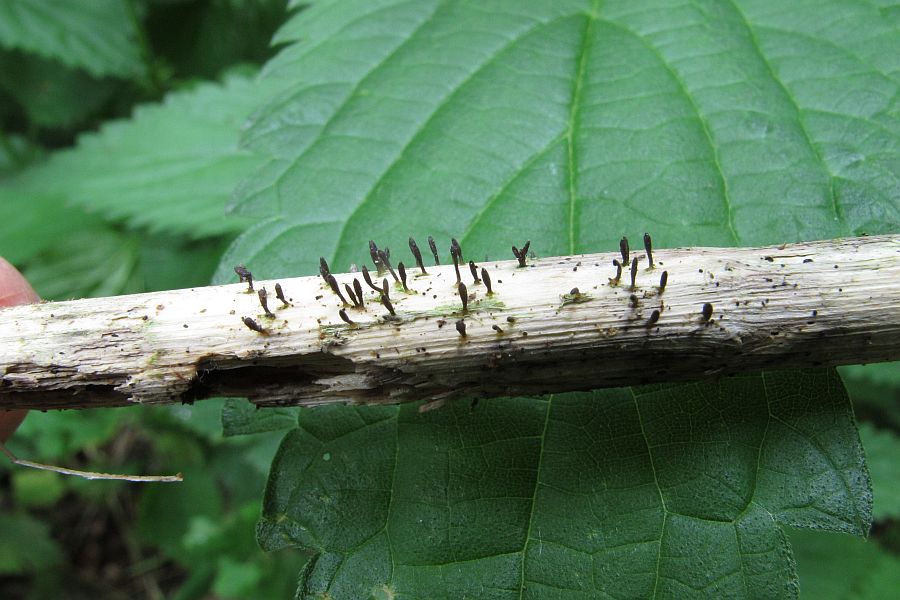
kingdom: Fungi
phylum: Ascomycota
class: Dothideomycetes
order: Acrospermales
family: Acrospermaceae
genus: Acrospermum
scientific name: Acrospermum compressum
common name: nælde-stængeltunge
